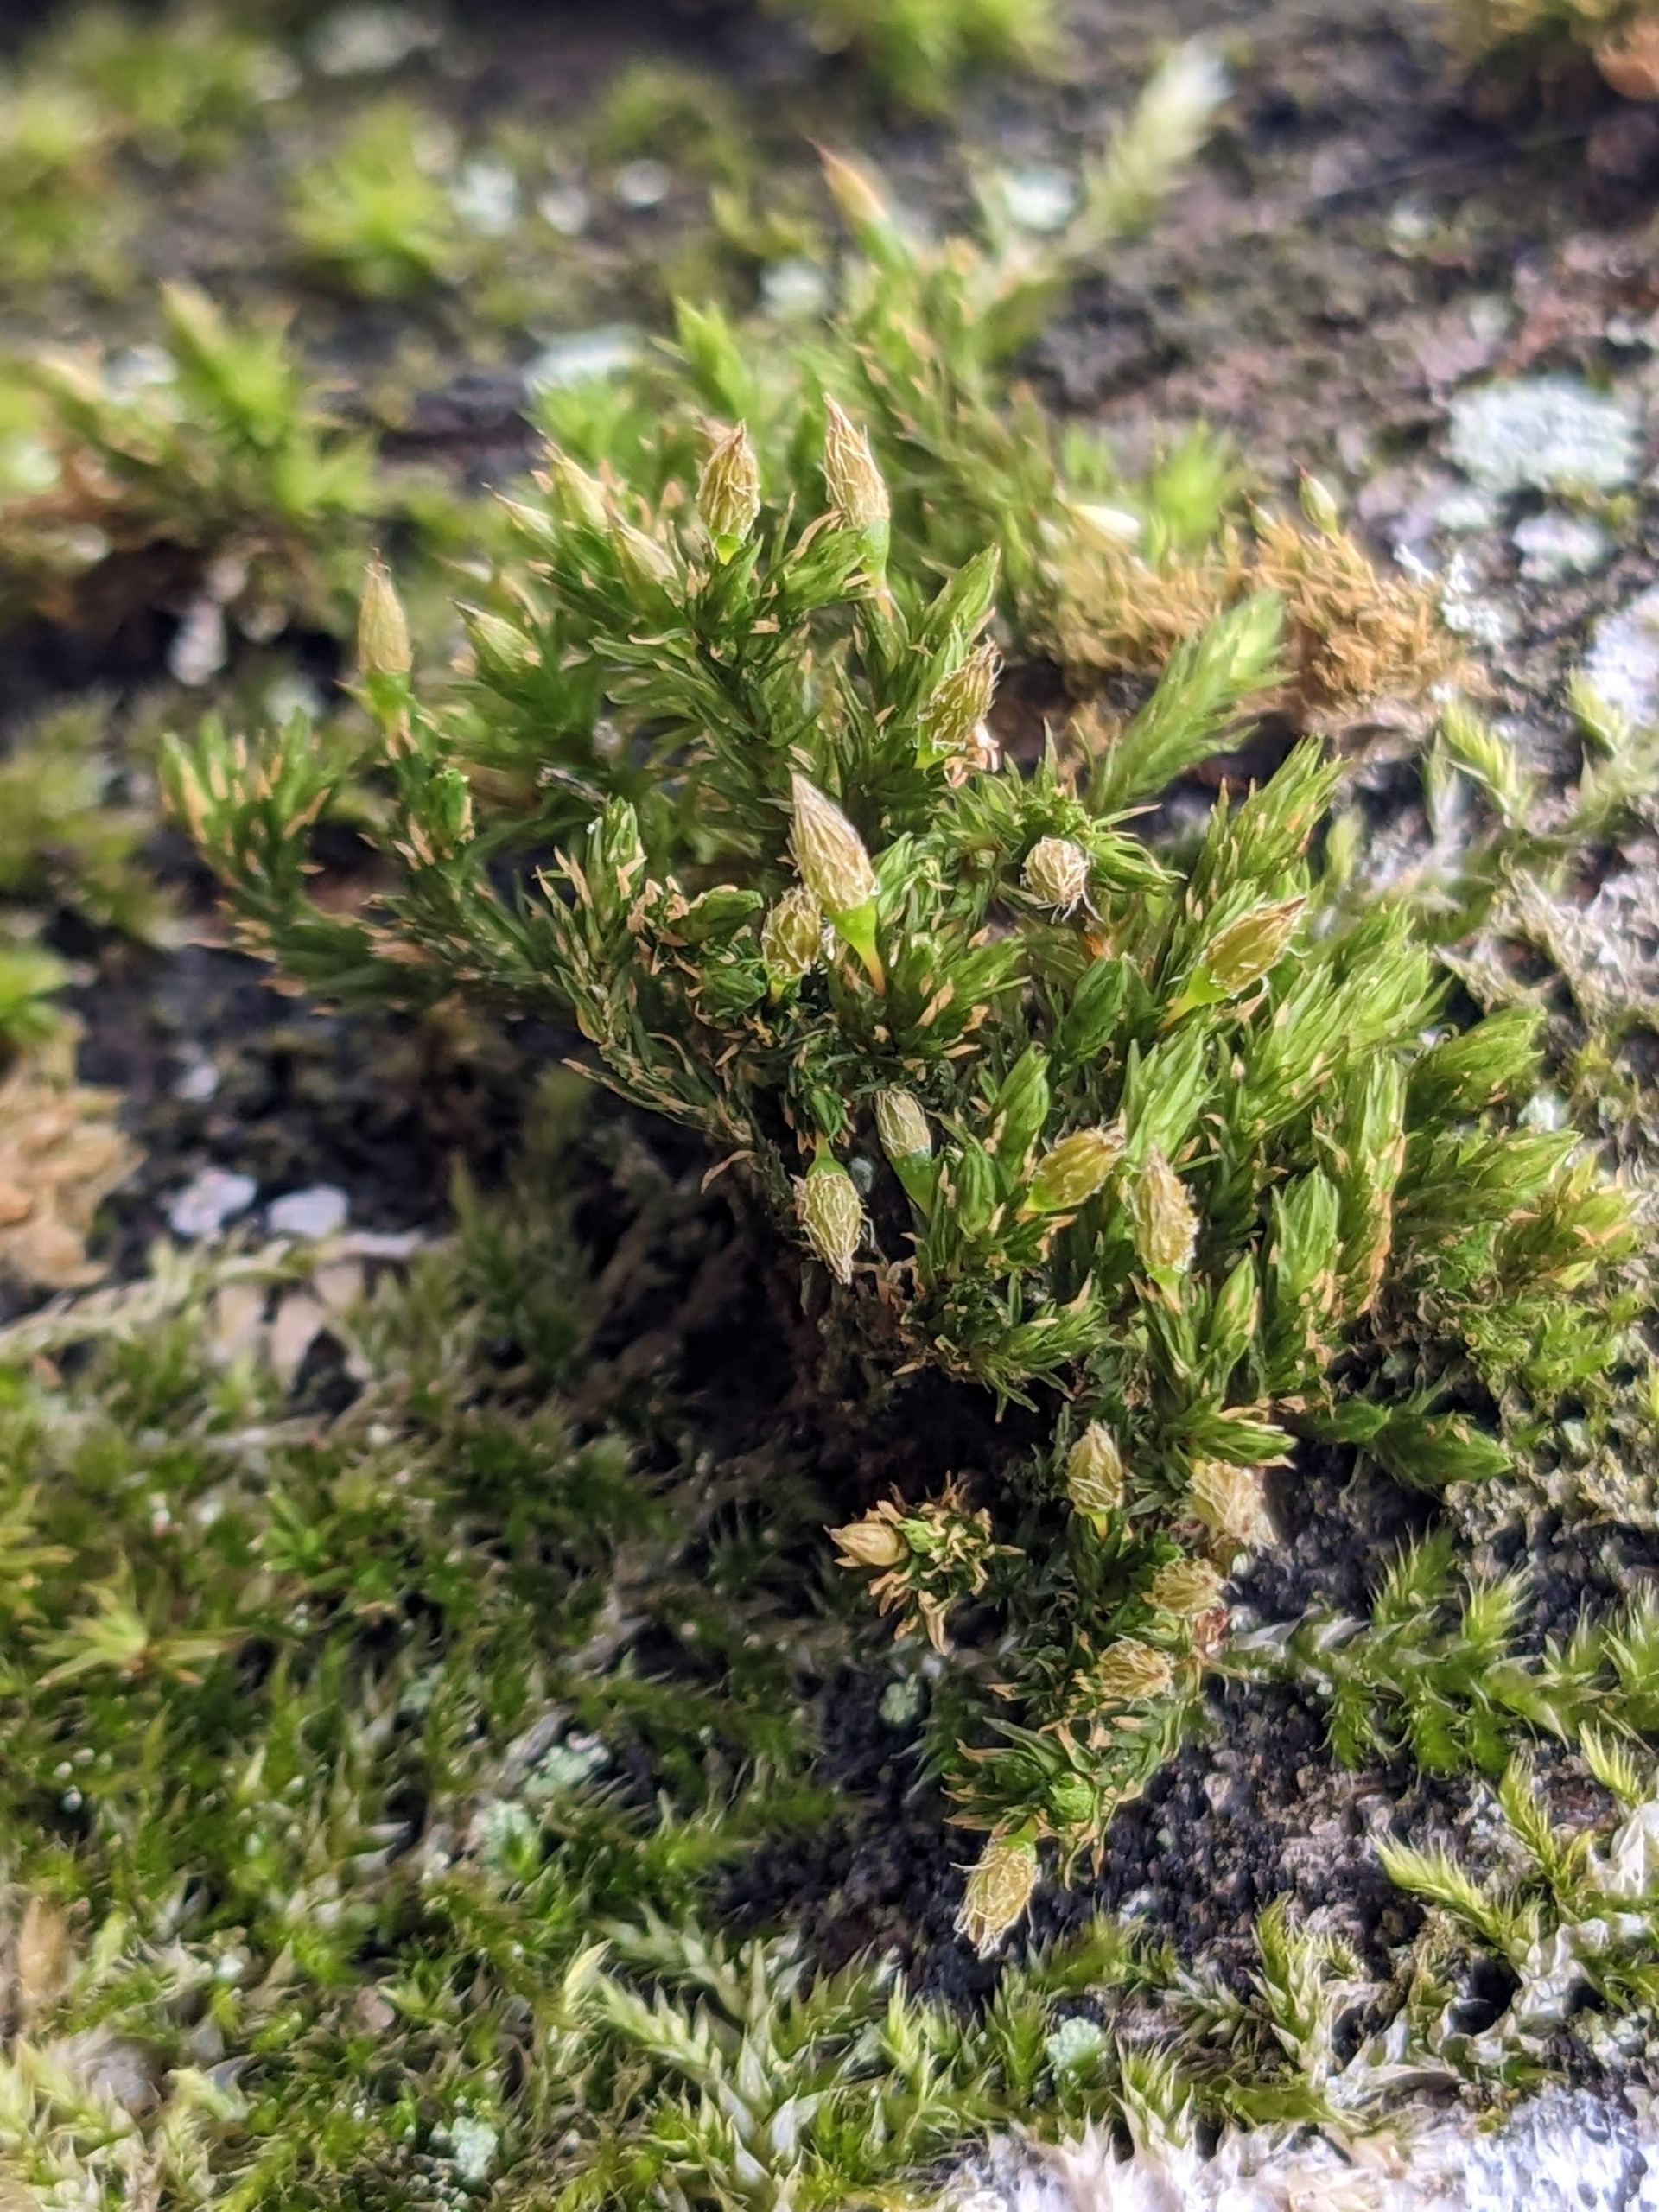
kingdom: Plantae
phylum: Bryophyta
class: Bryopsida
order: Orthotrichales
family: Orthotrichaceae
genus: Lewinskya
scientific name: Lewinskya speciosa
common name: Kortstribet furehætte
